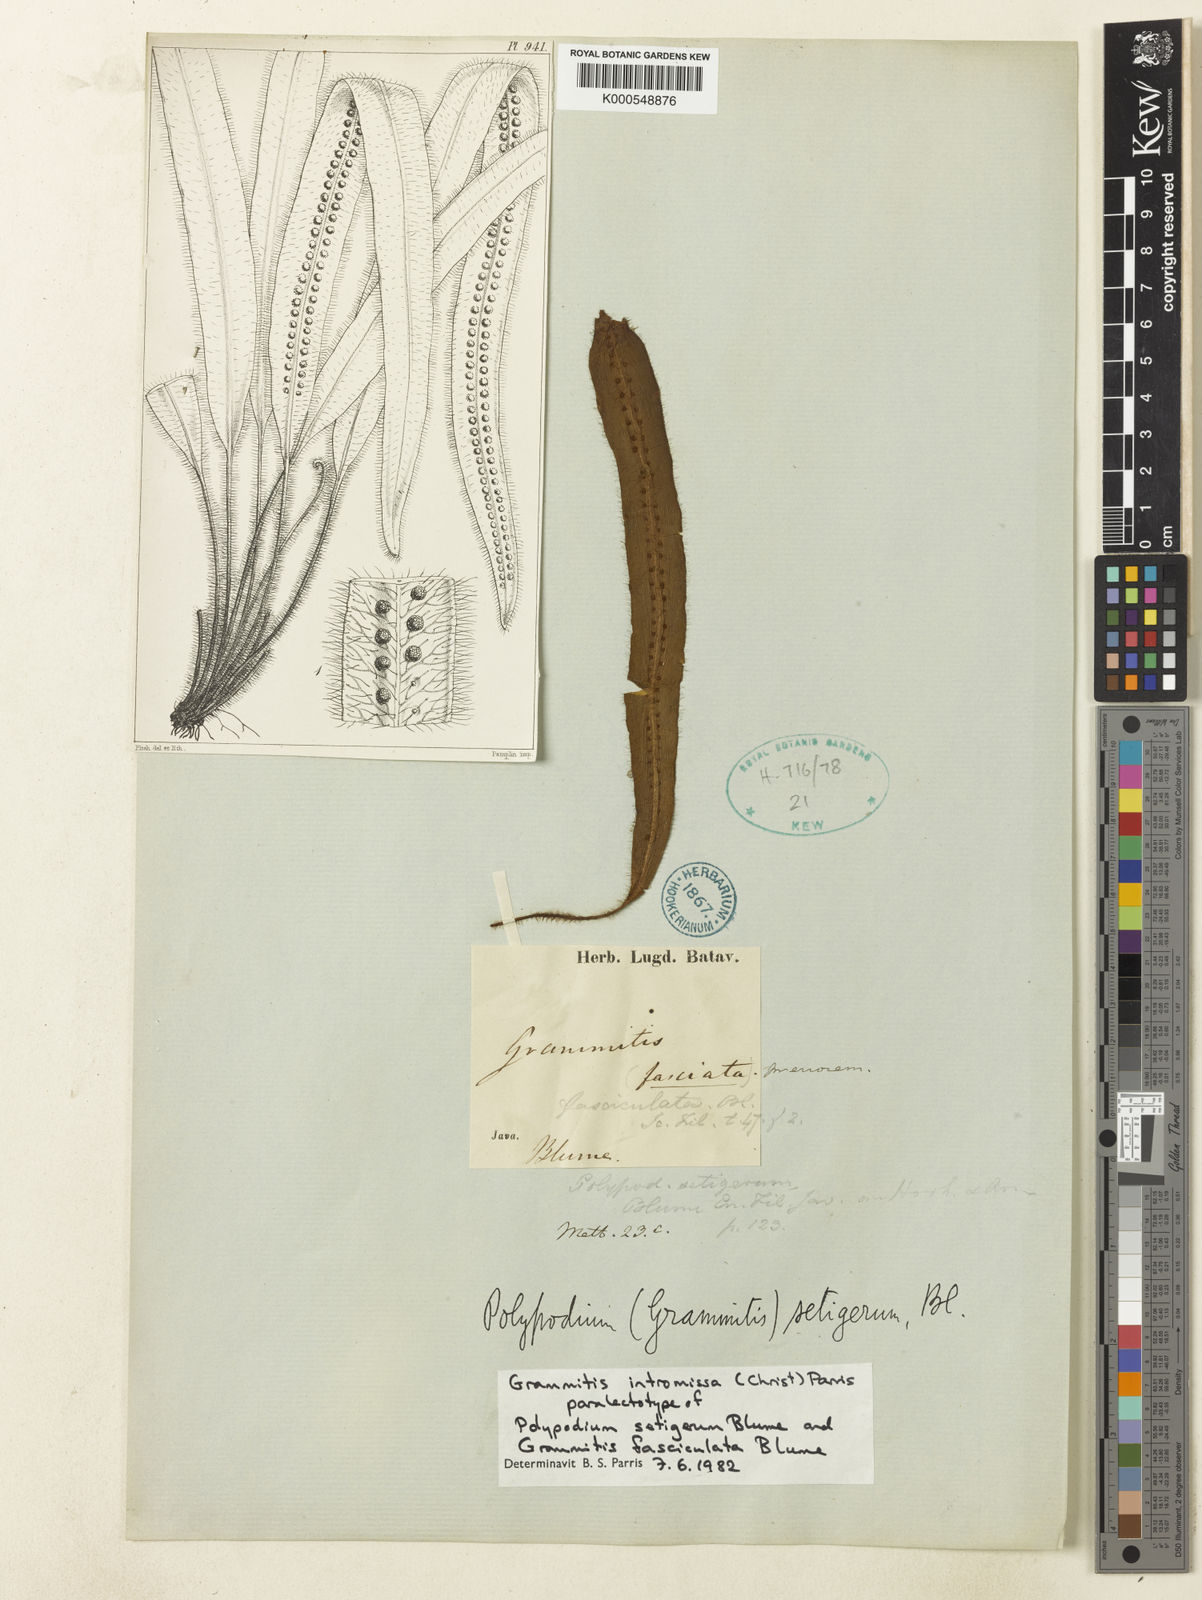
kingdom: Plantae
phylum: Tracheophyta
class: Polypodiopsida
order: Polypodiales
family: Polypodiaceae
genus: Oreogrammitis
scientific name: Oreogrammitis setigera
